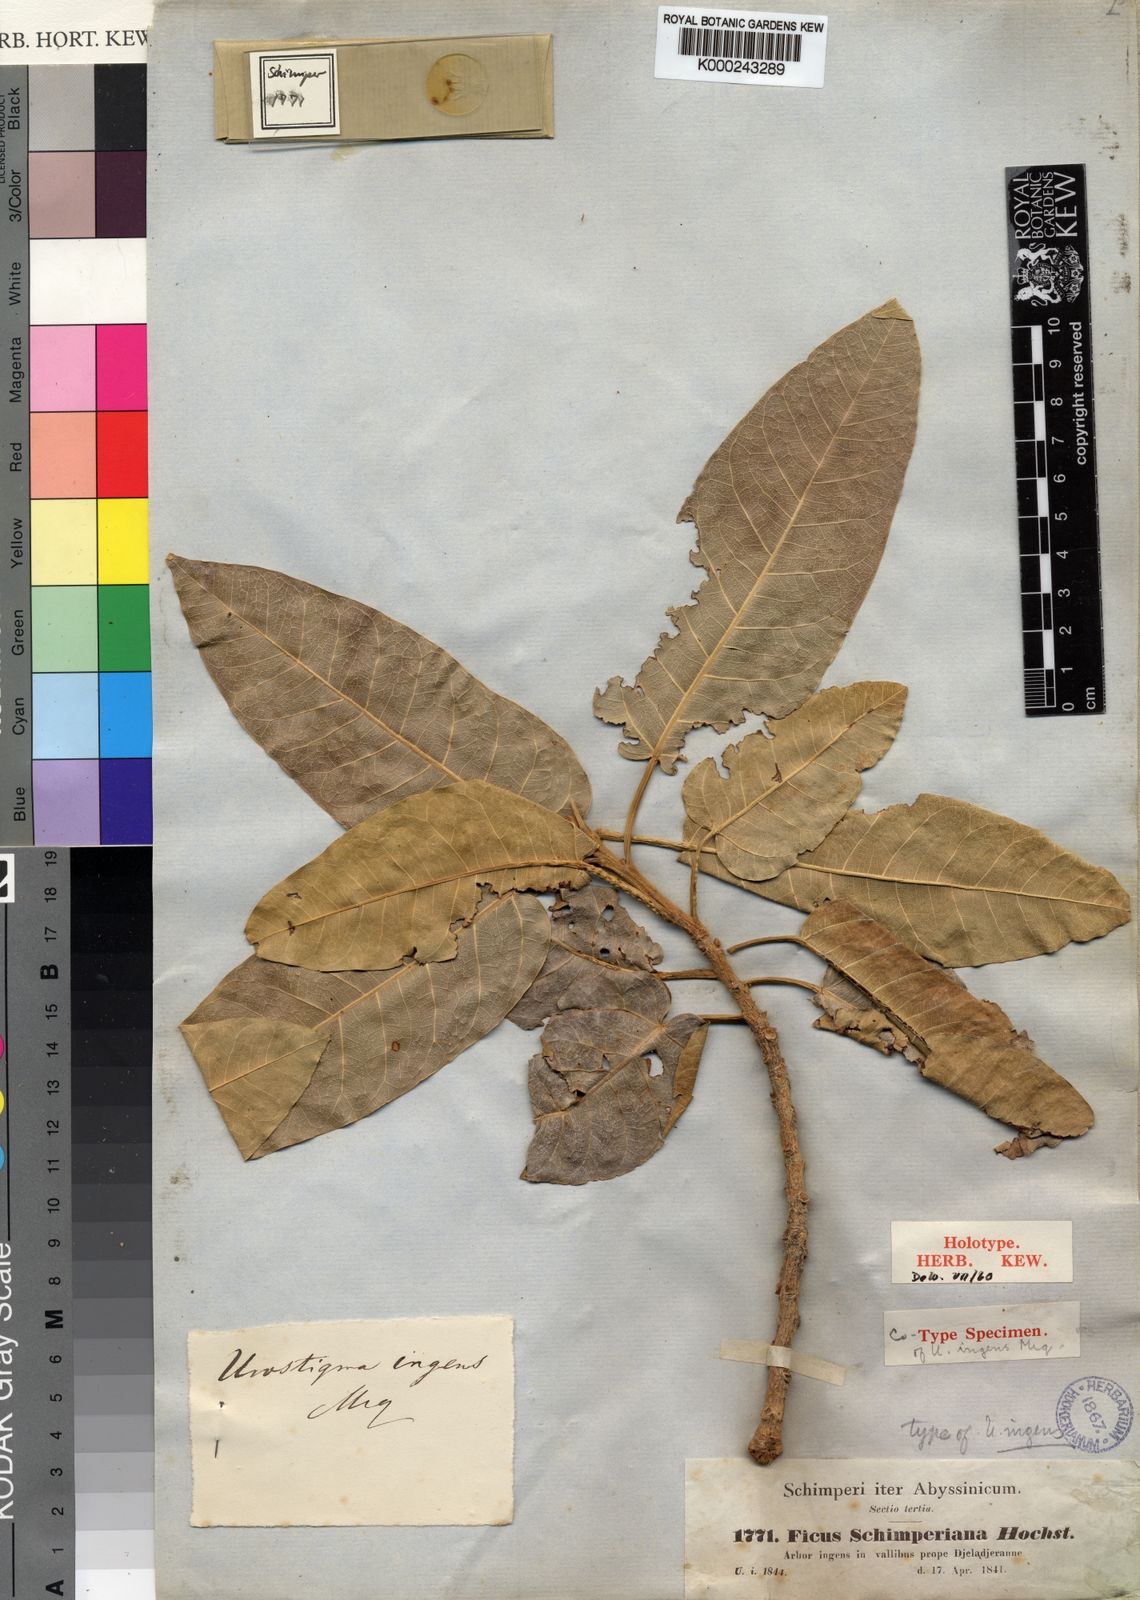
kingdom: Plantae
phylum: Tracheophyta
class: Magnoliopsida
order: Rosales
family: Moraceae
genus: Ficus
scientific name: Ficus ingens
